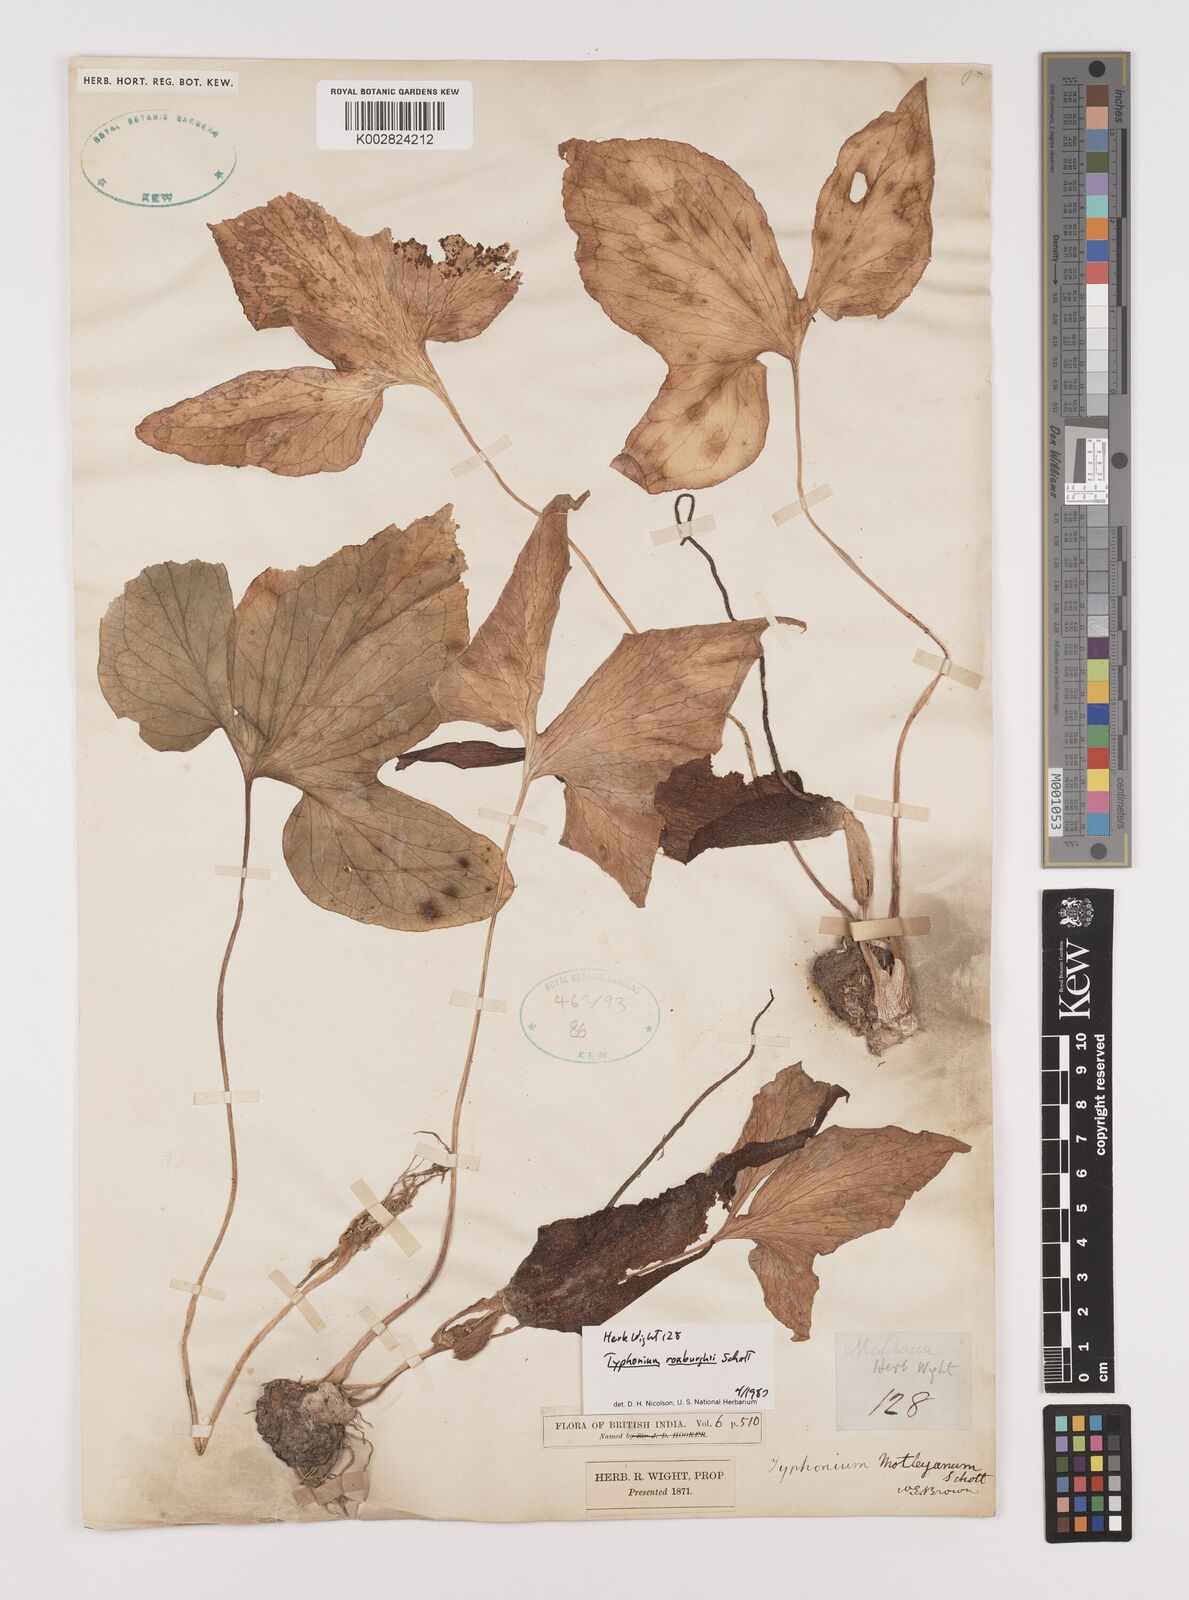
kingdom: Plantae
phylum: Tracheophyta
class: Liliopsida
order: Alismatales
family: Araceae
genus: Typhonium
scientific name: Typhonium roxburghii
